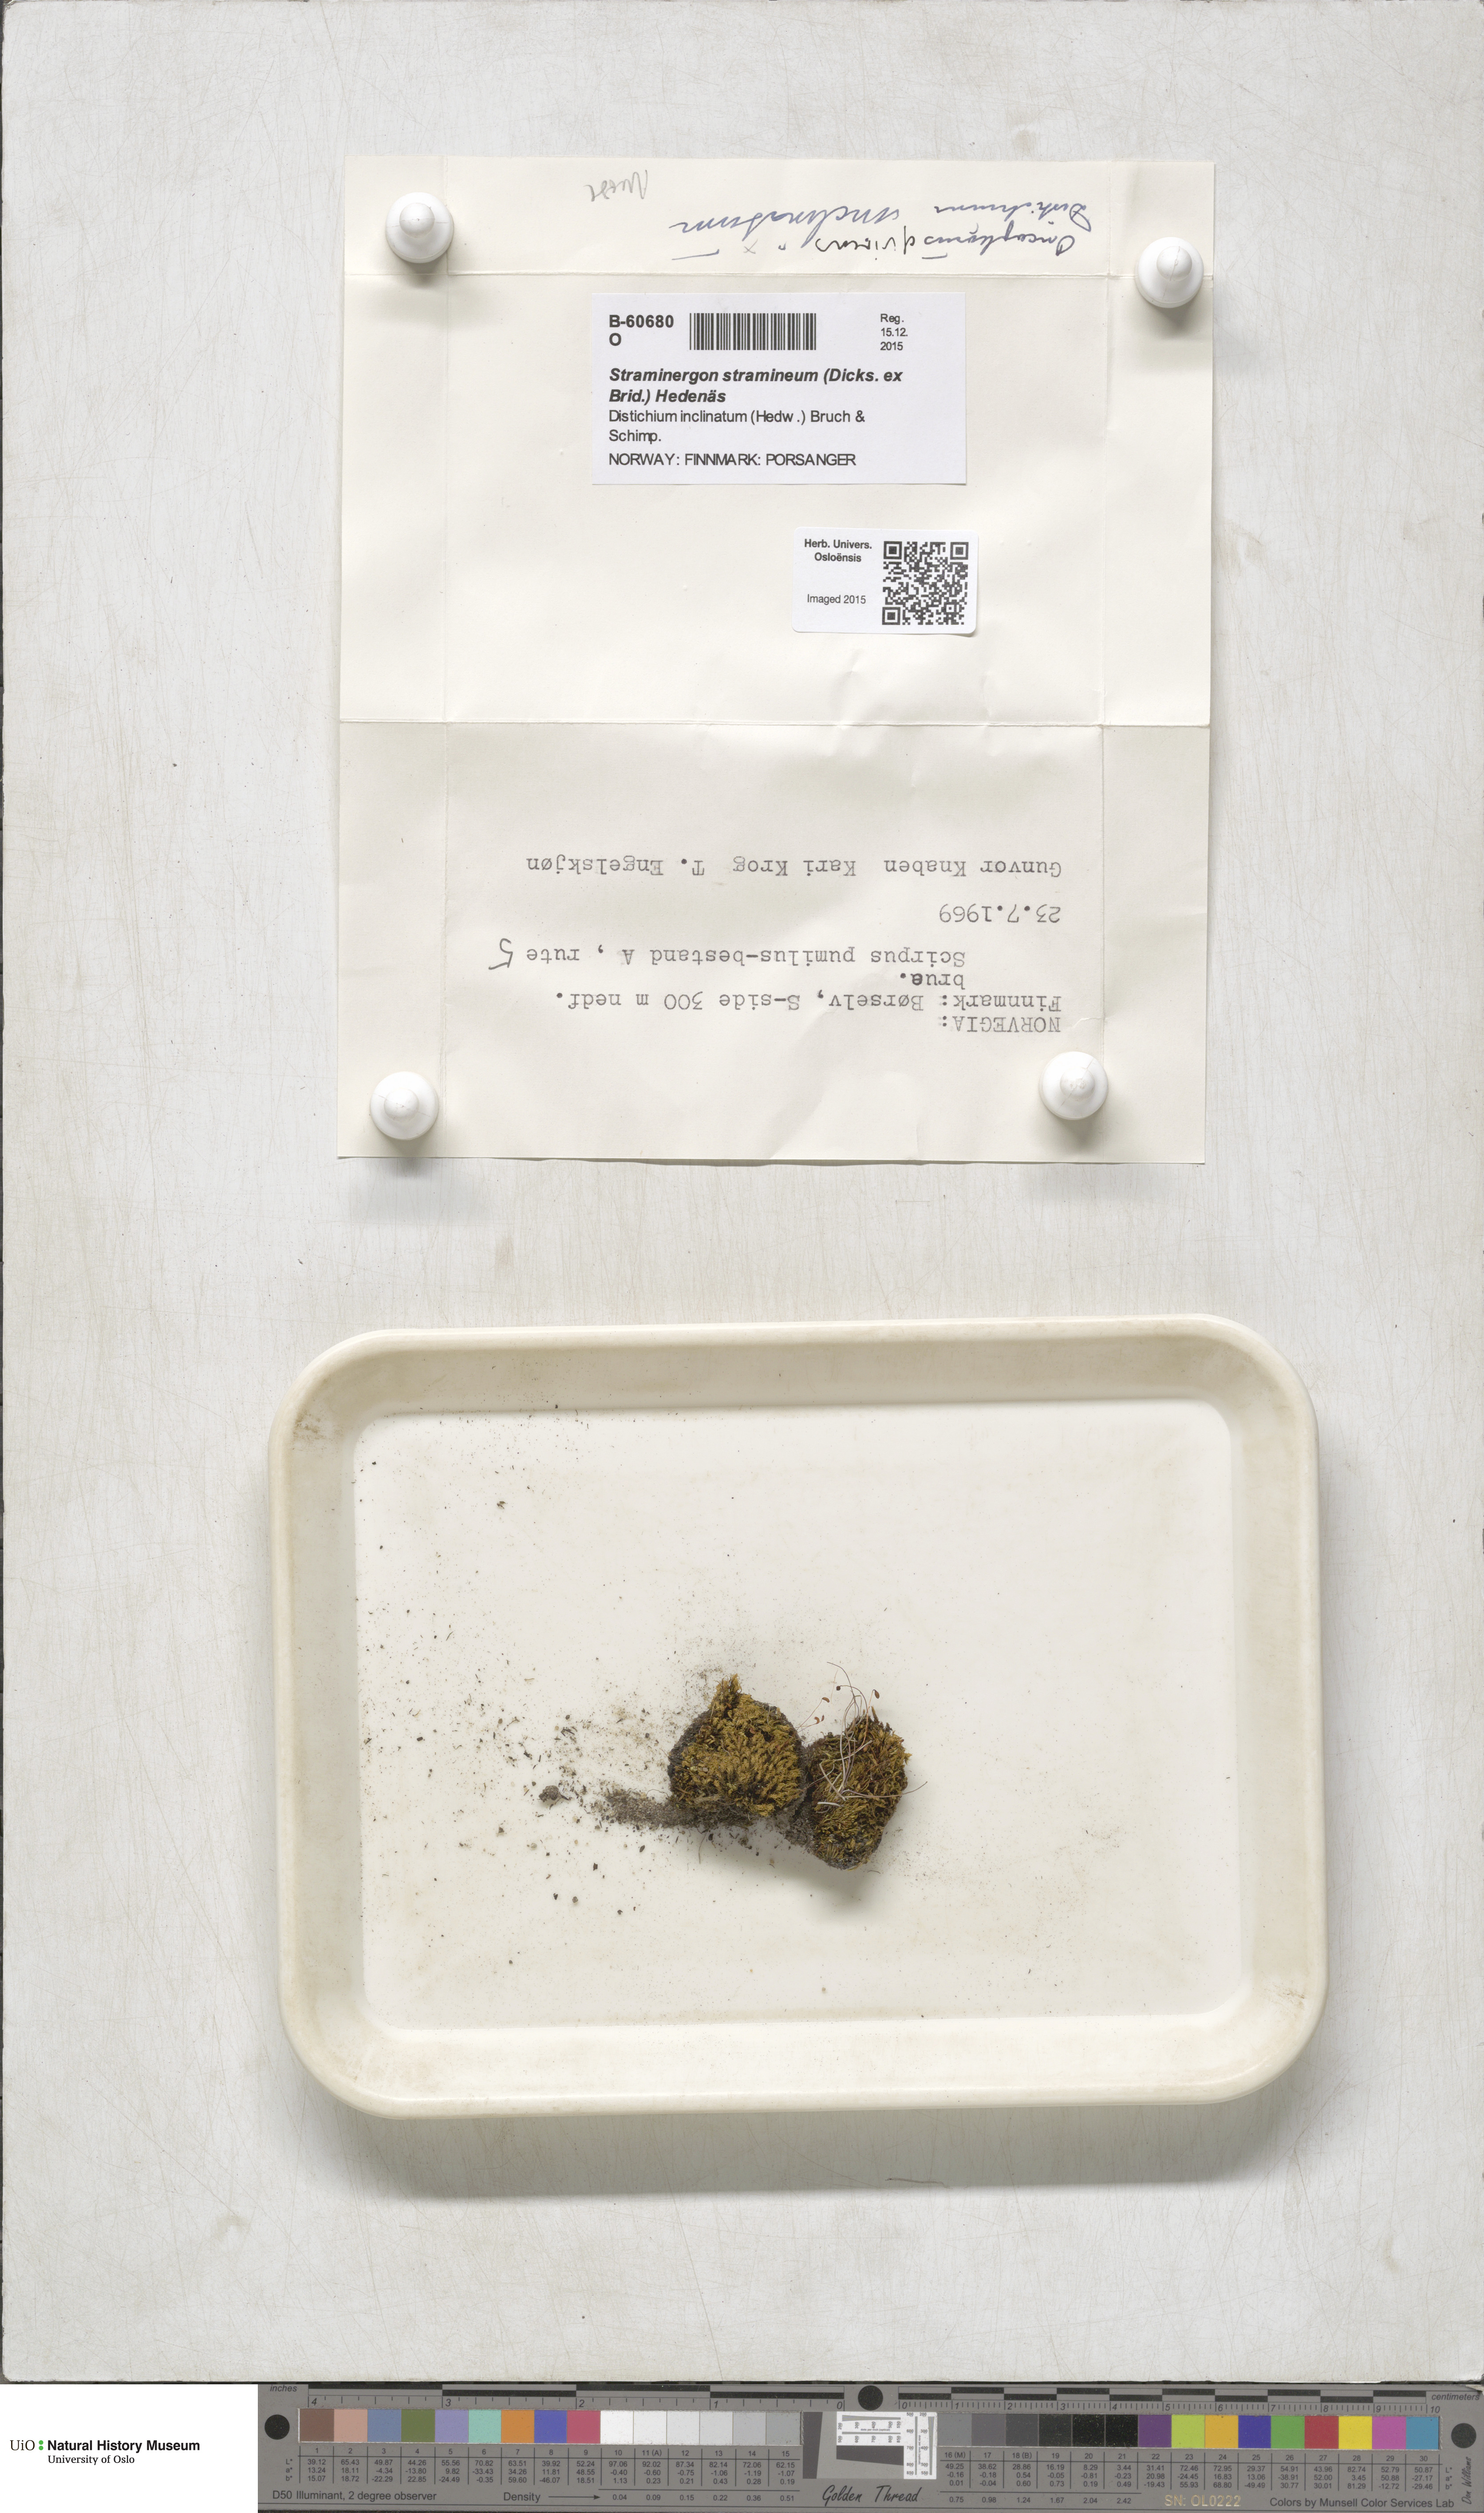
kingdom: Plantae
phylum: Bryophyta
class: Bryopsida
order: Hypnales
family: Calliergonaceae
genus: Straminergon
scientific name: Straminergon stramineum
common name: Straw moss
